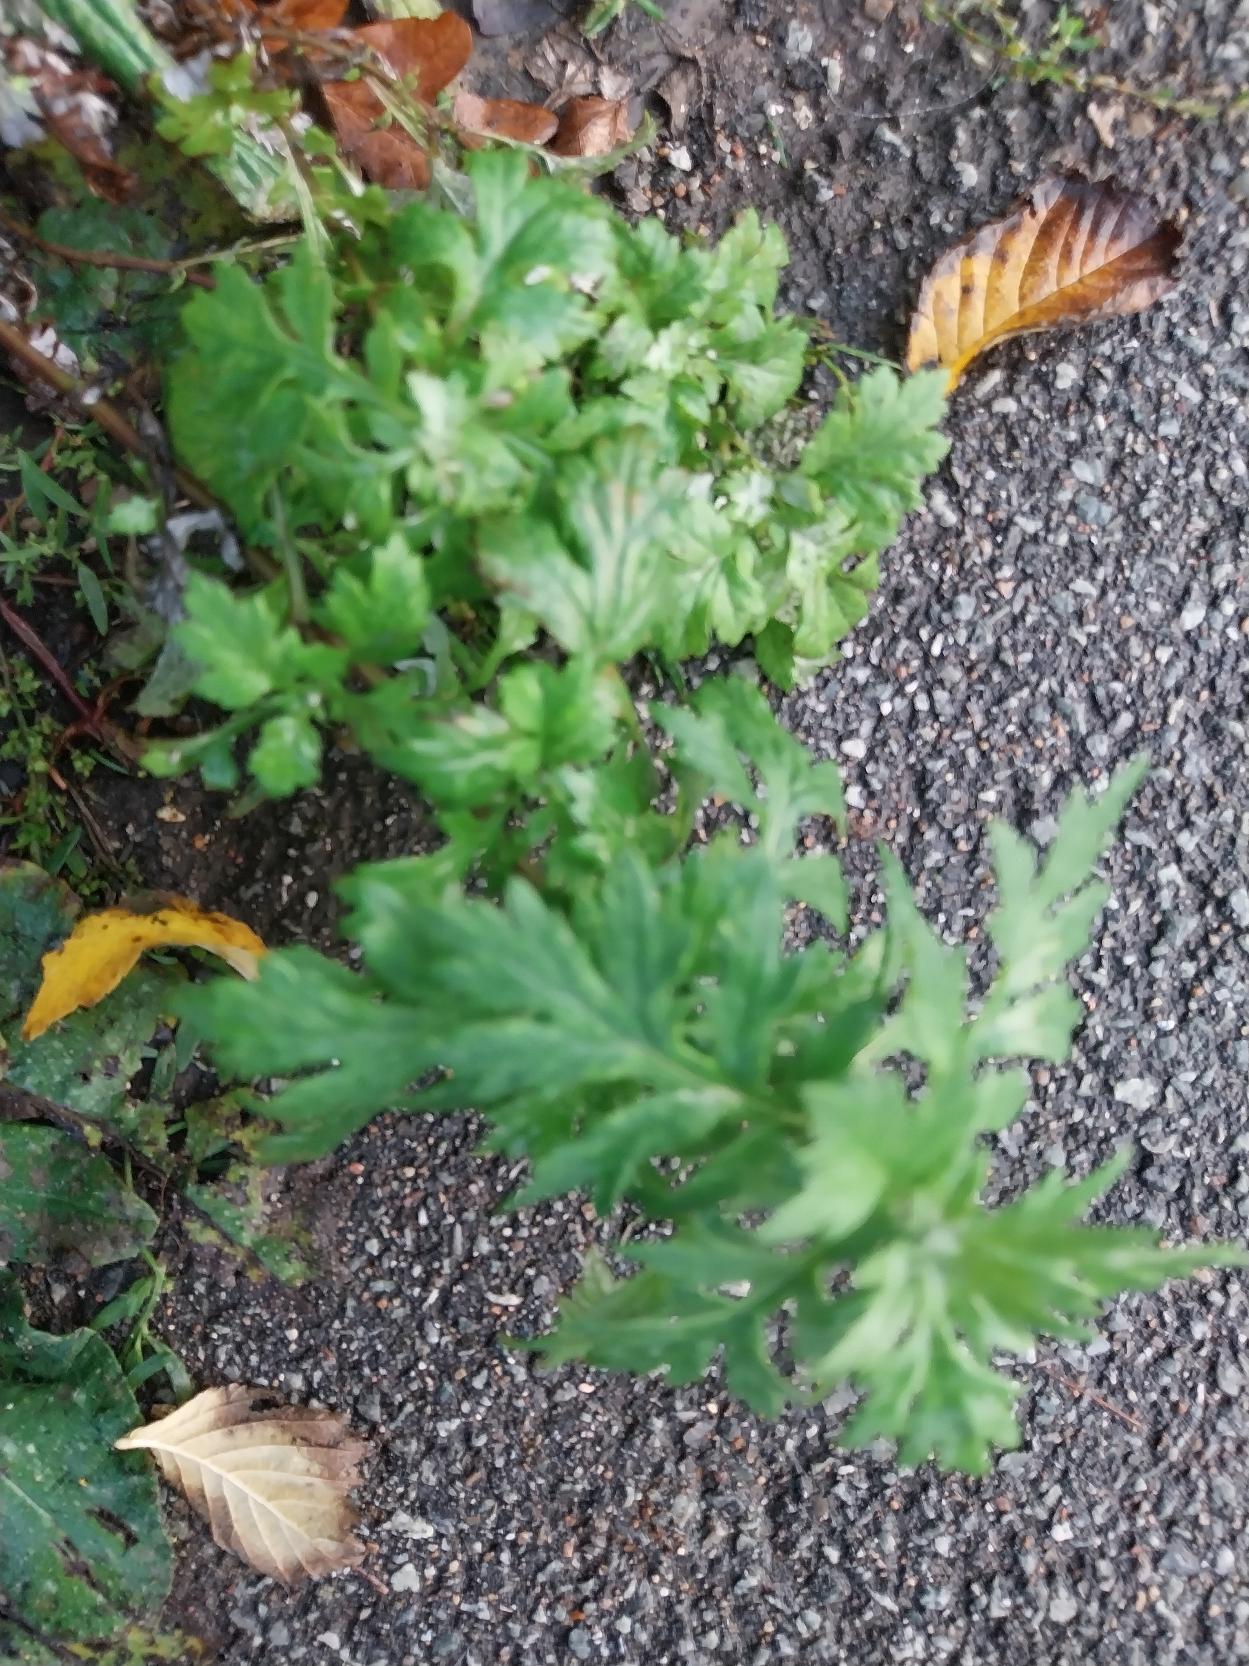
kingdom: Plantae
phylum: Tracheophyta
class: Magnoliopsida
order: Asterales
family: Asteraceae
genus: Artemisia
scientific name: Artemisia vulgaris
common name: Grå-bynke
